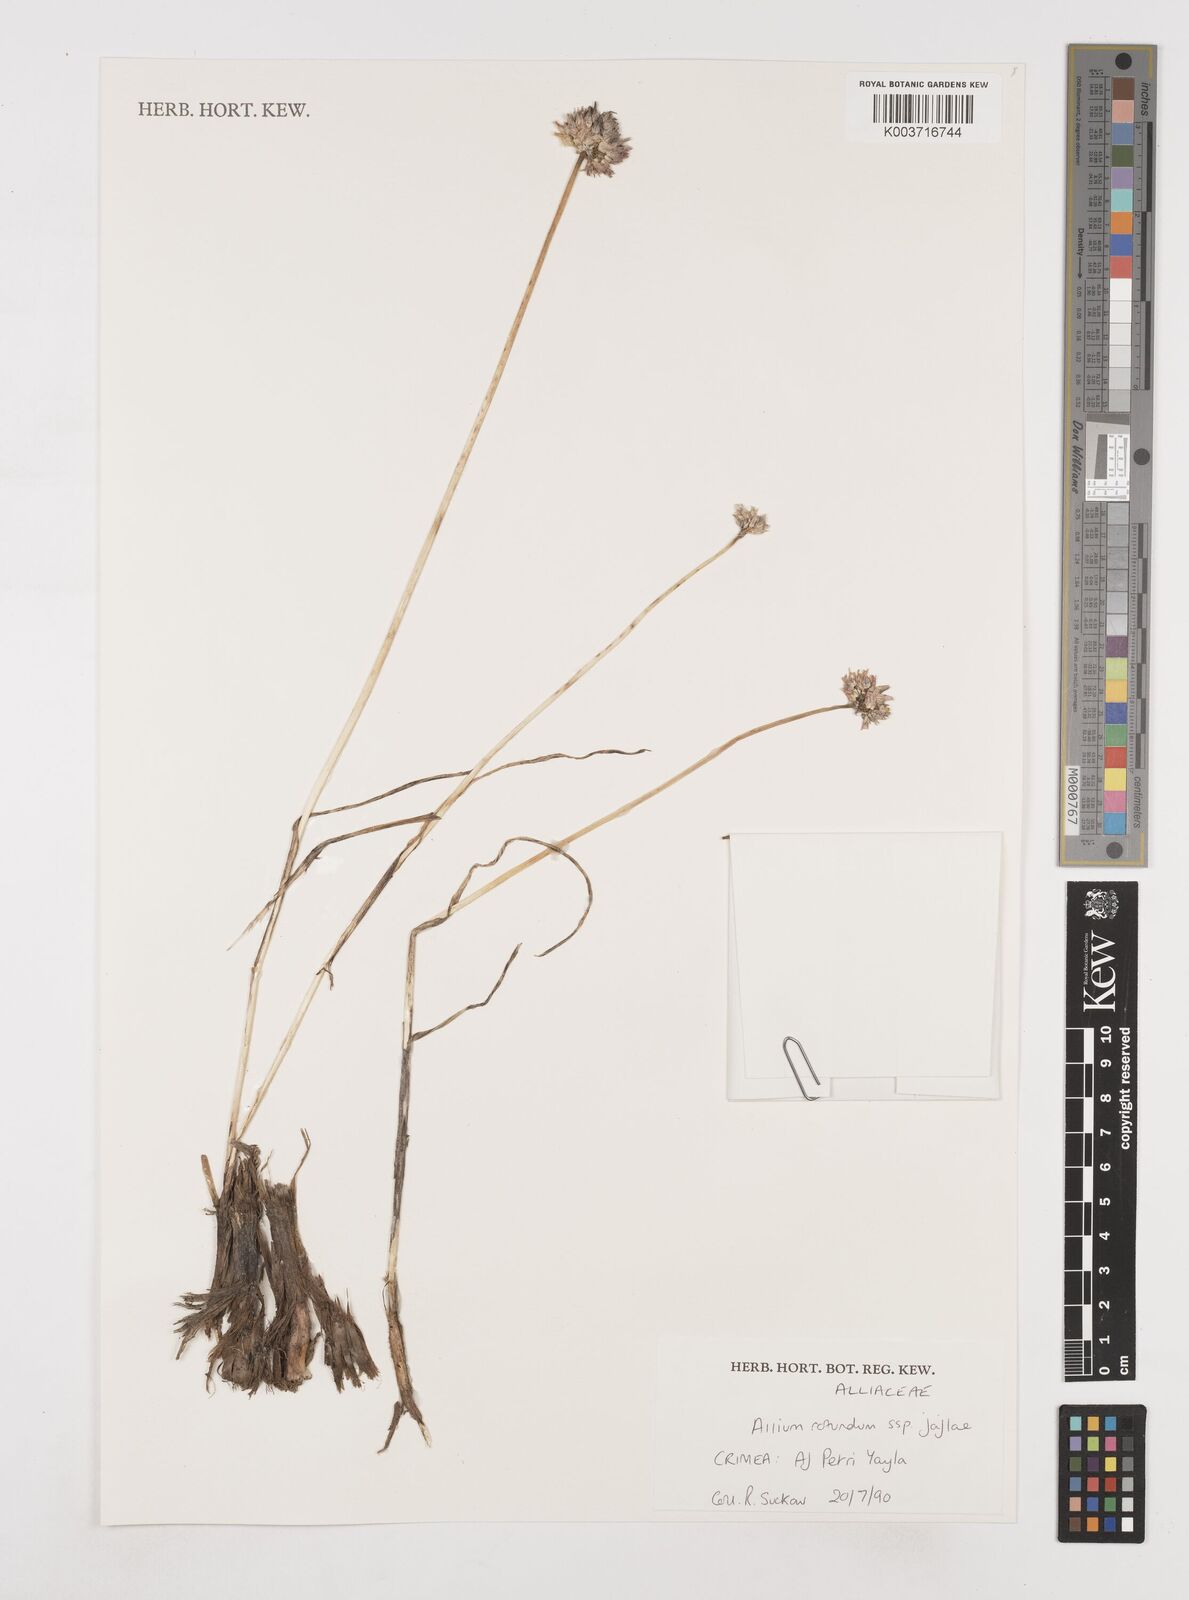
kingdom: Plantae
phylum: Tracheophyta
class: Liliopsida
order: Asparagales
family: Amaryllidaceae
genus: Allium
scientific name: Allium rotundum
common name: Sand leek
